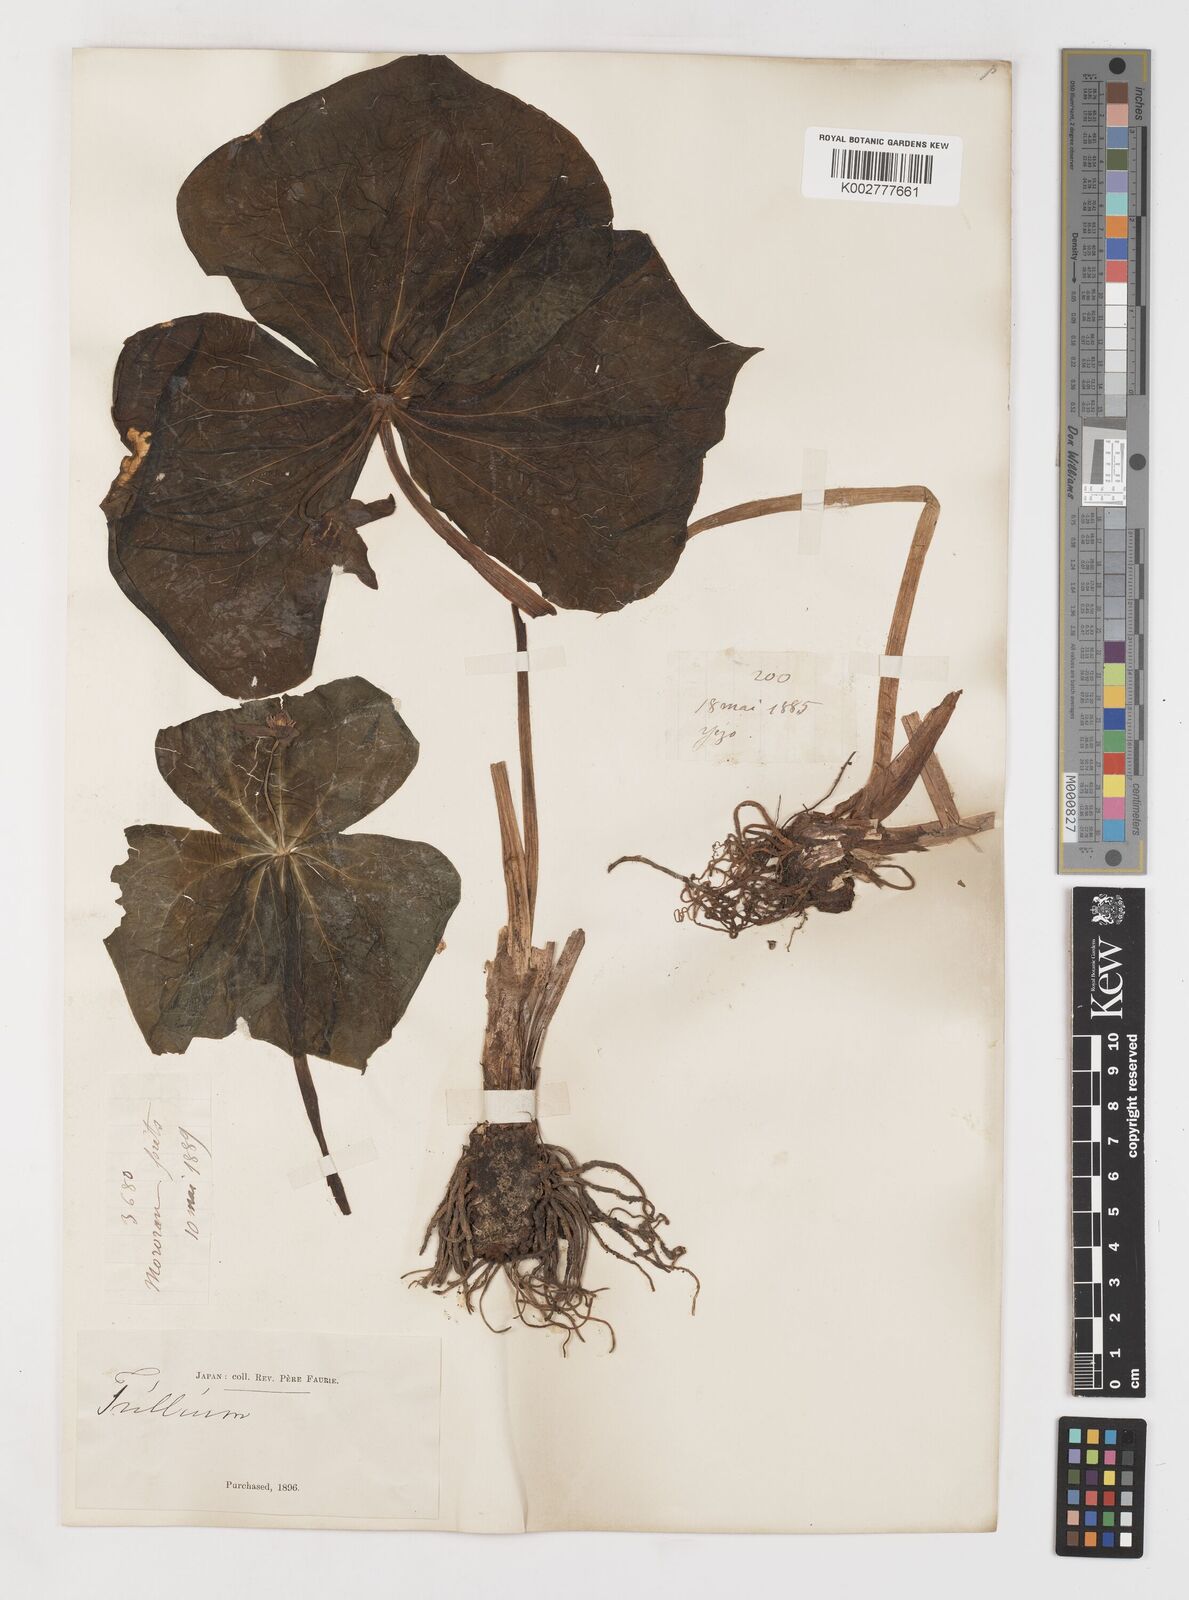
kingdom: Plantae
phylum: Tracheophyta
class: Liliopsida
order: Liliales
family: Melanthiaceae
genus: Trillium
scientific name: Trillium smallii
